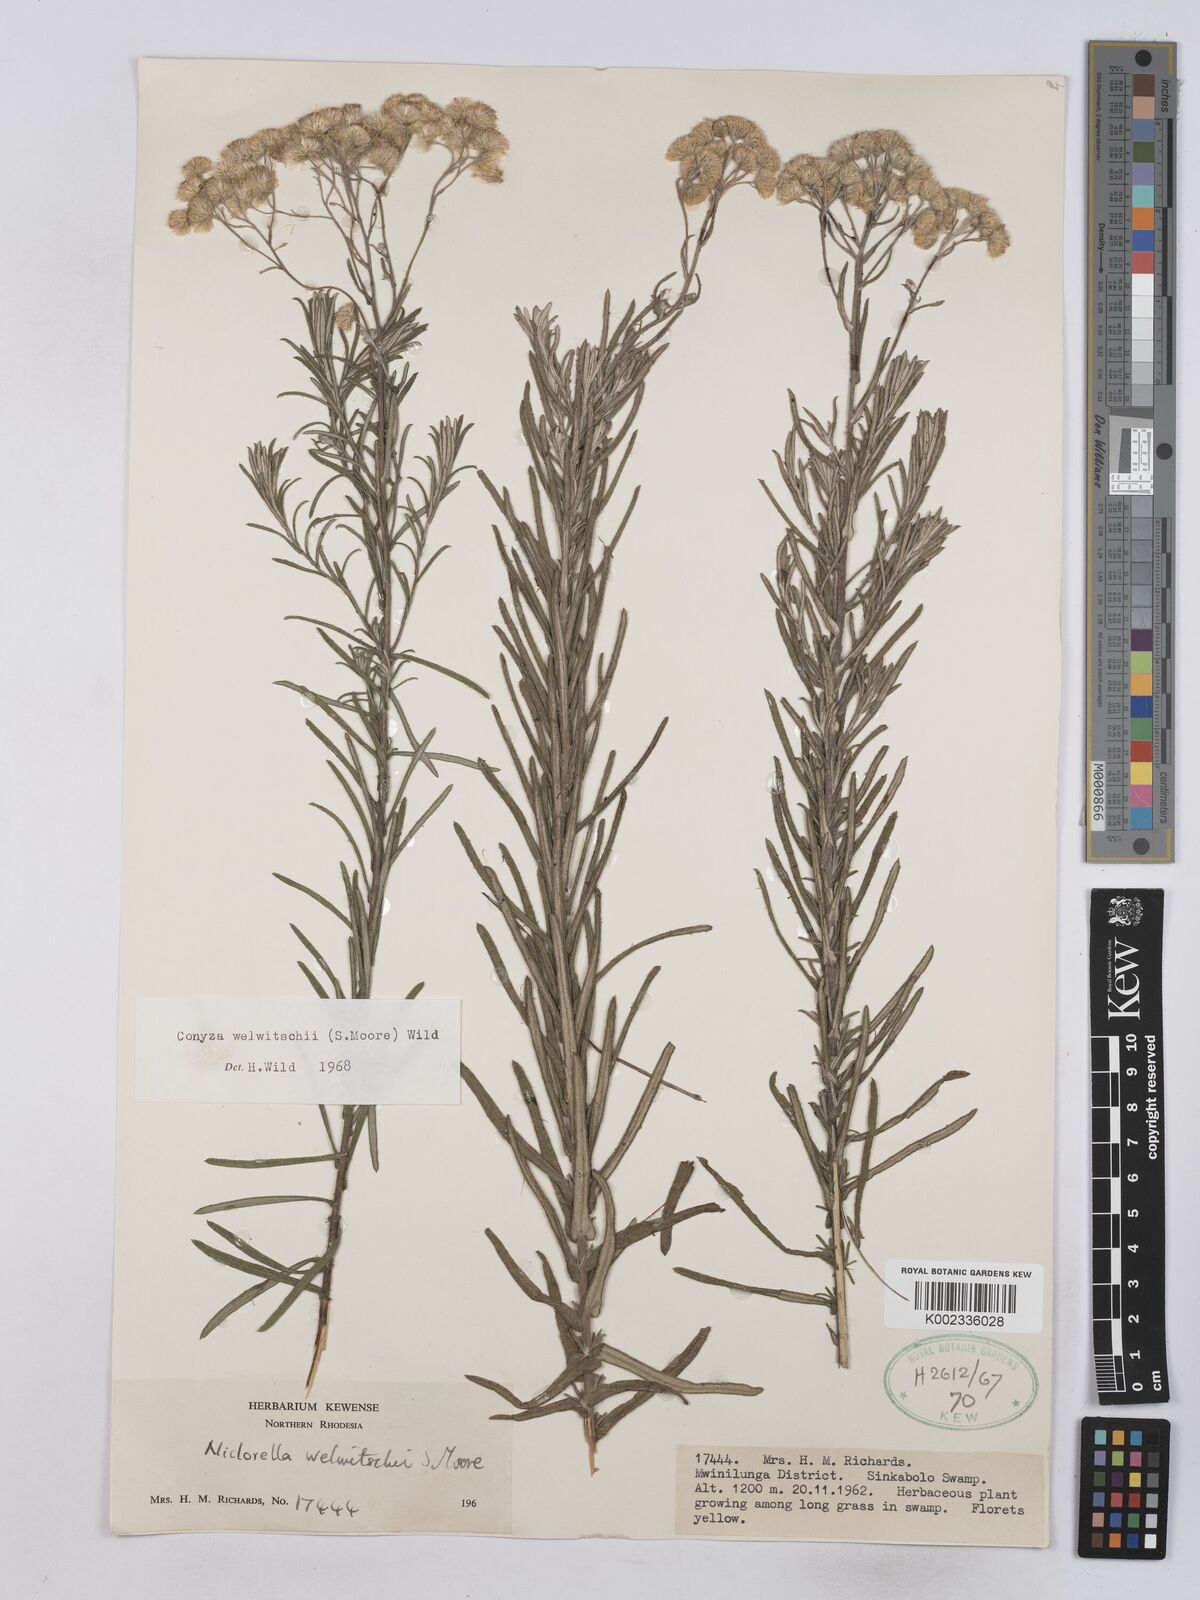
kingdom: Plantae
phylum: Tracheophyta
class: Magnoliopsida
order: Asterales
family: Asteraceae
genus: Nidorella
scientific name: Nidorella welwitschii
